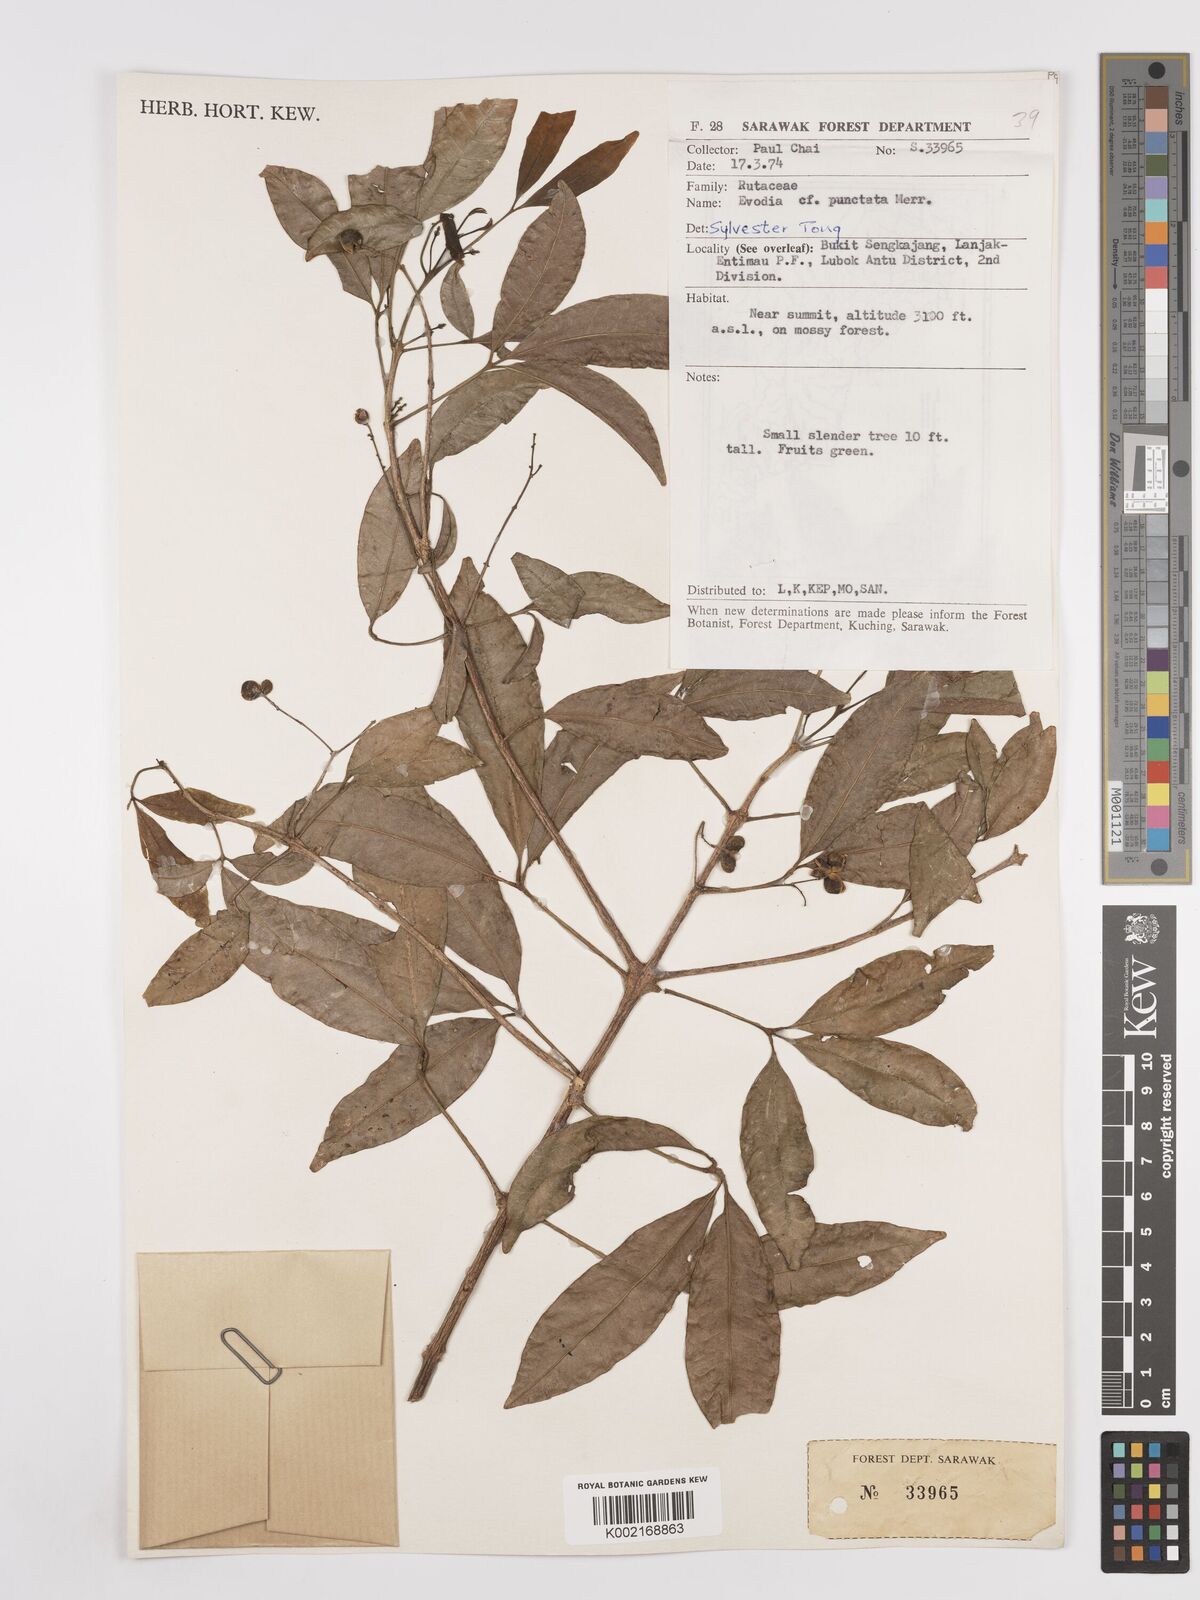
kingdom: Plantae
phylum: Tracheophyta
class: Magnoliopsida
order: Sapindales
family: Rutaceae
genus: Melicope
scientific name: Melicope lunu-ankenda
